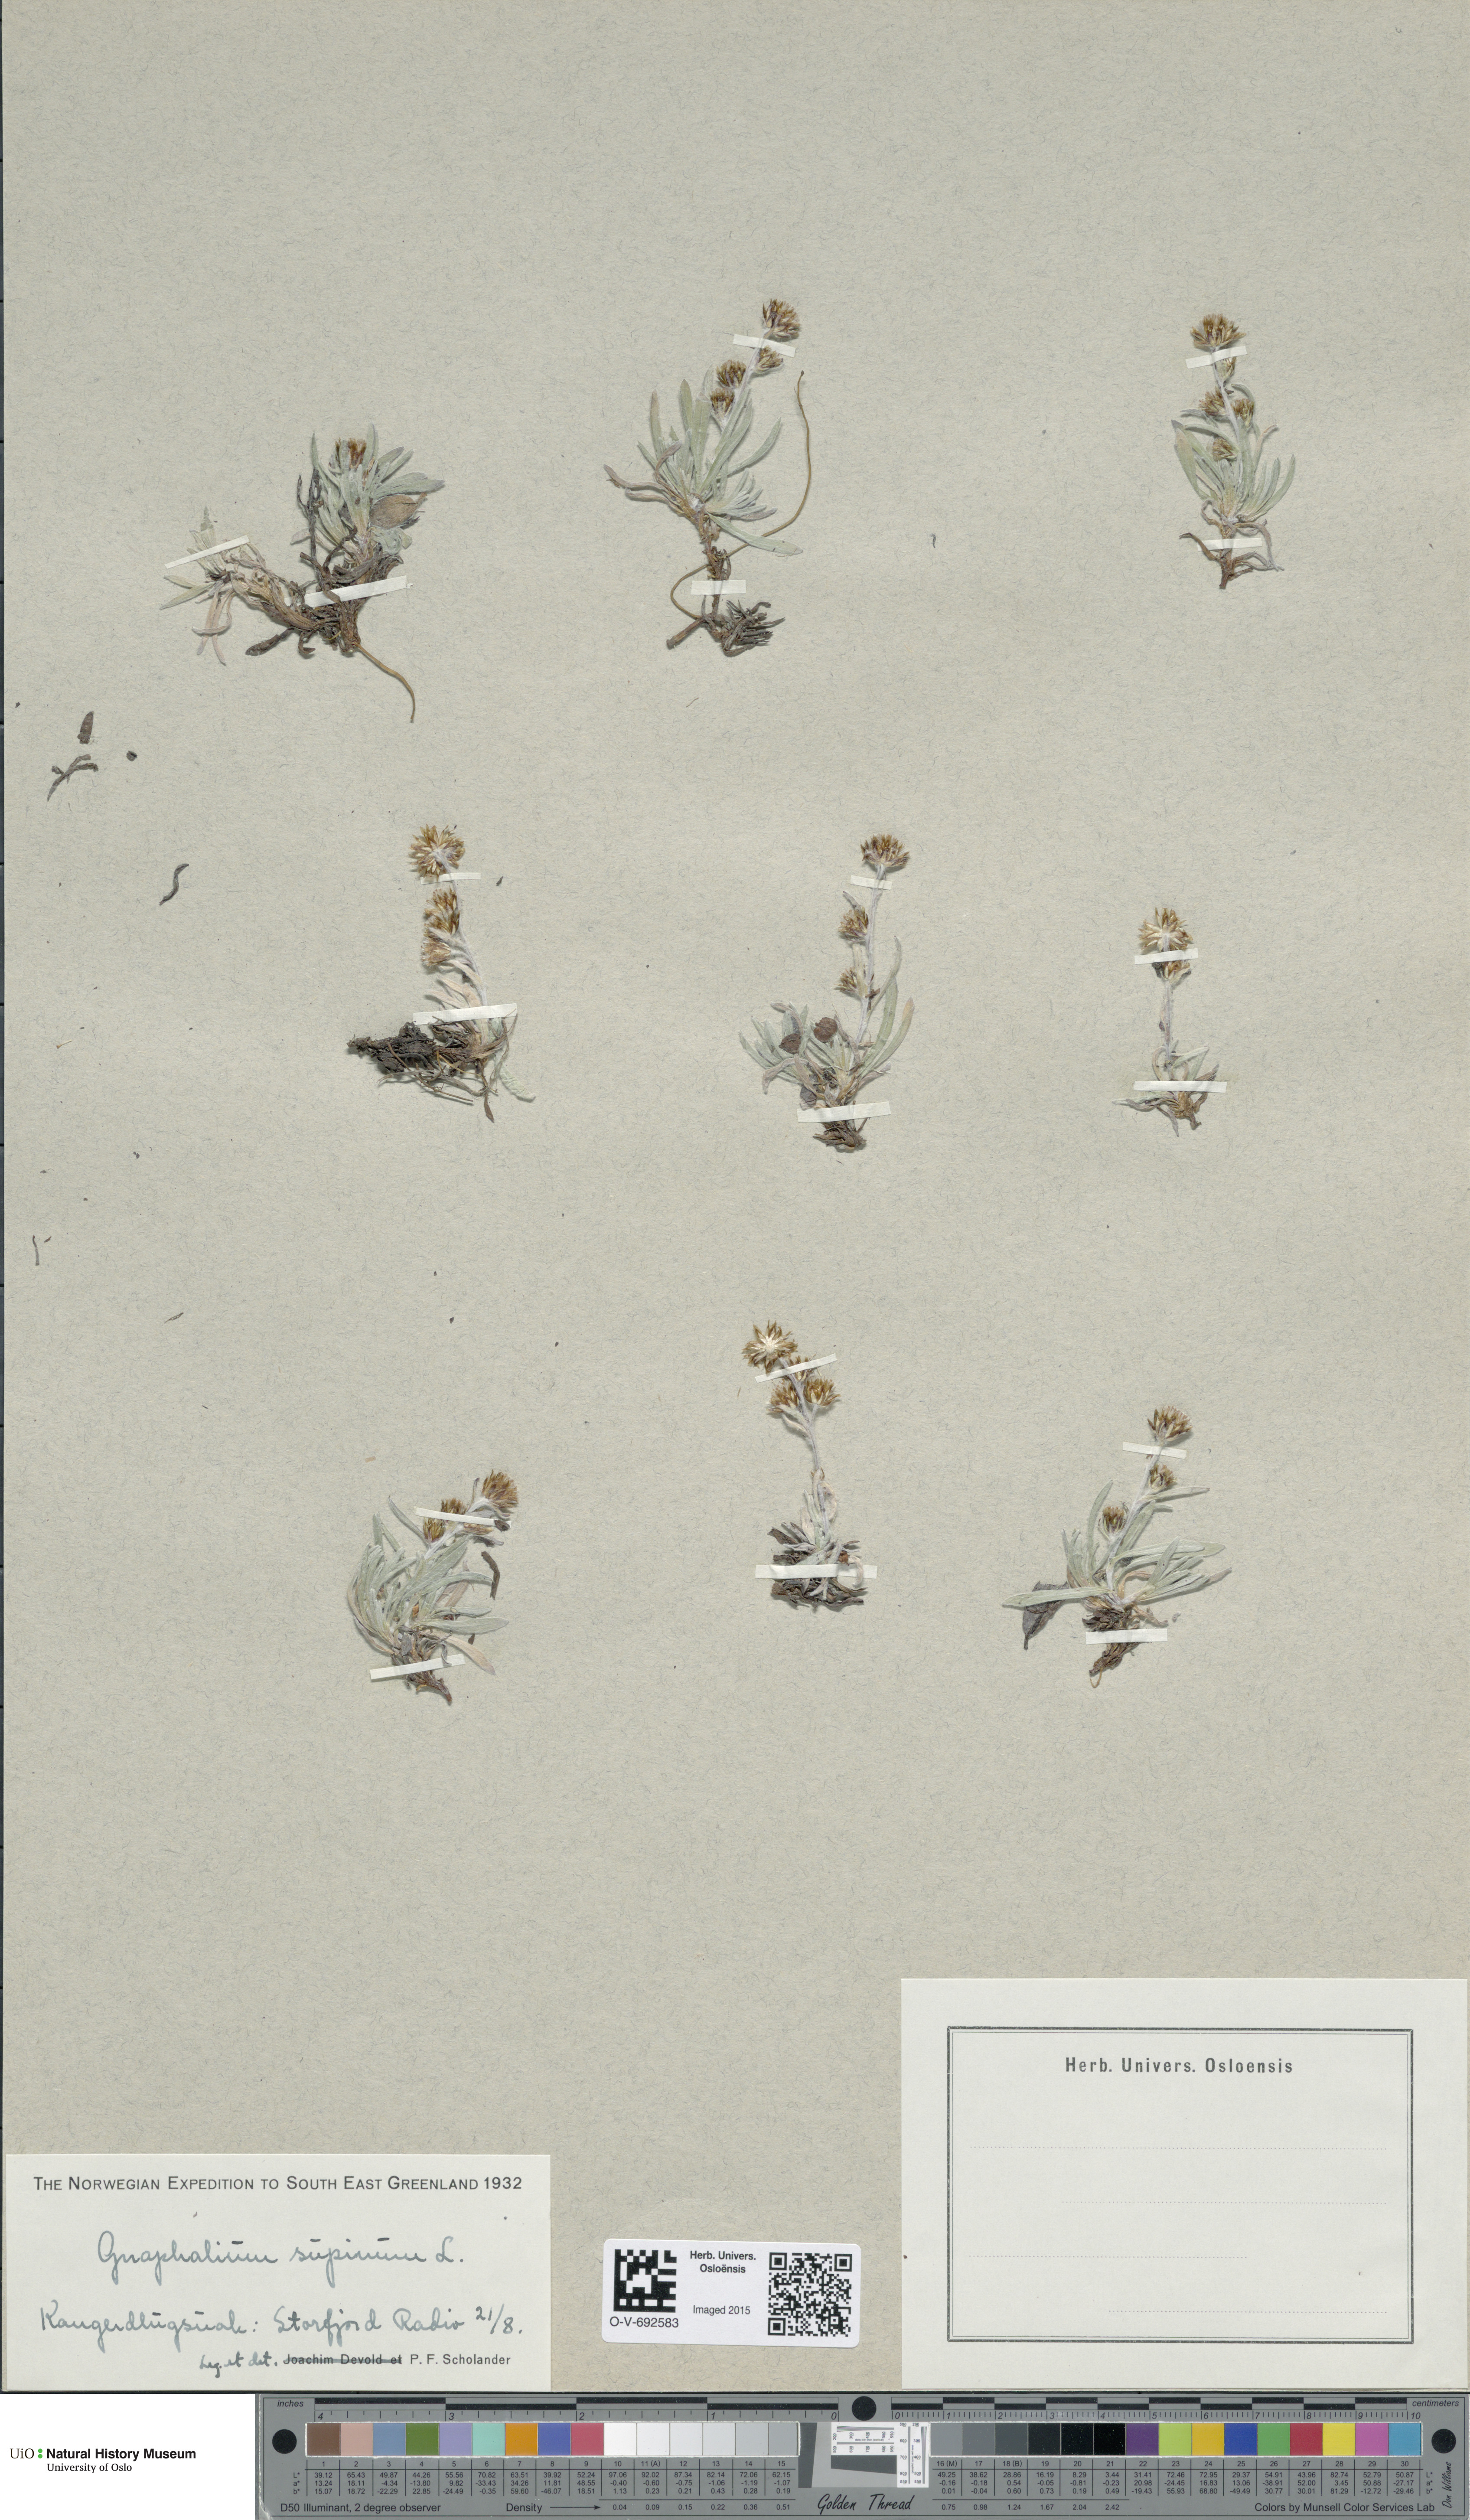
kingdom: Plantae
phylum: Tracheophyta
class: Magnoliopsida
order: Asterales
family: Asteraceae
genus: Omalotheca
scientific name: Omalotheca supina
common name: Alpine arctic-cudweed
